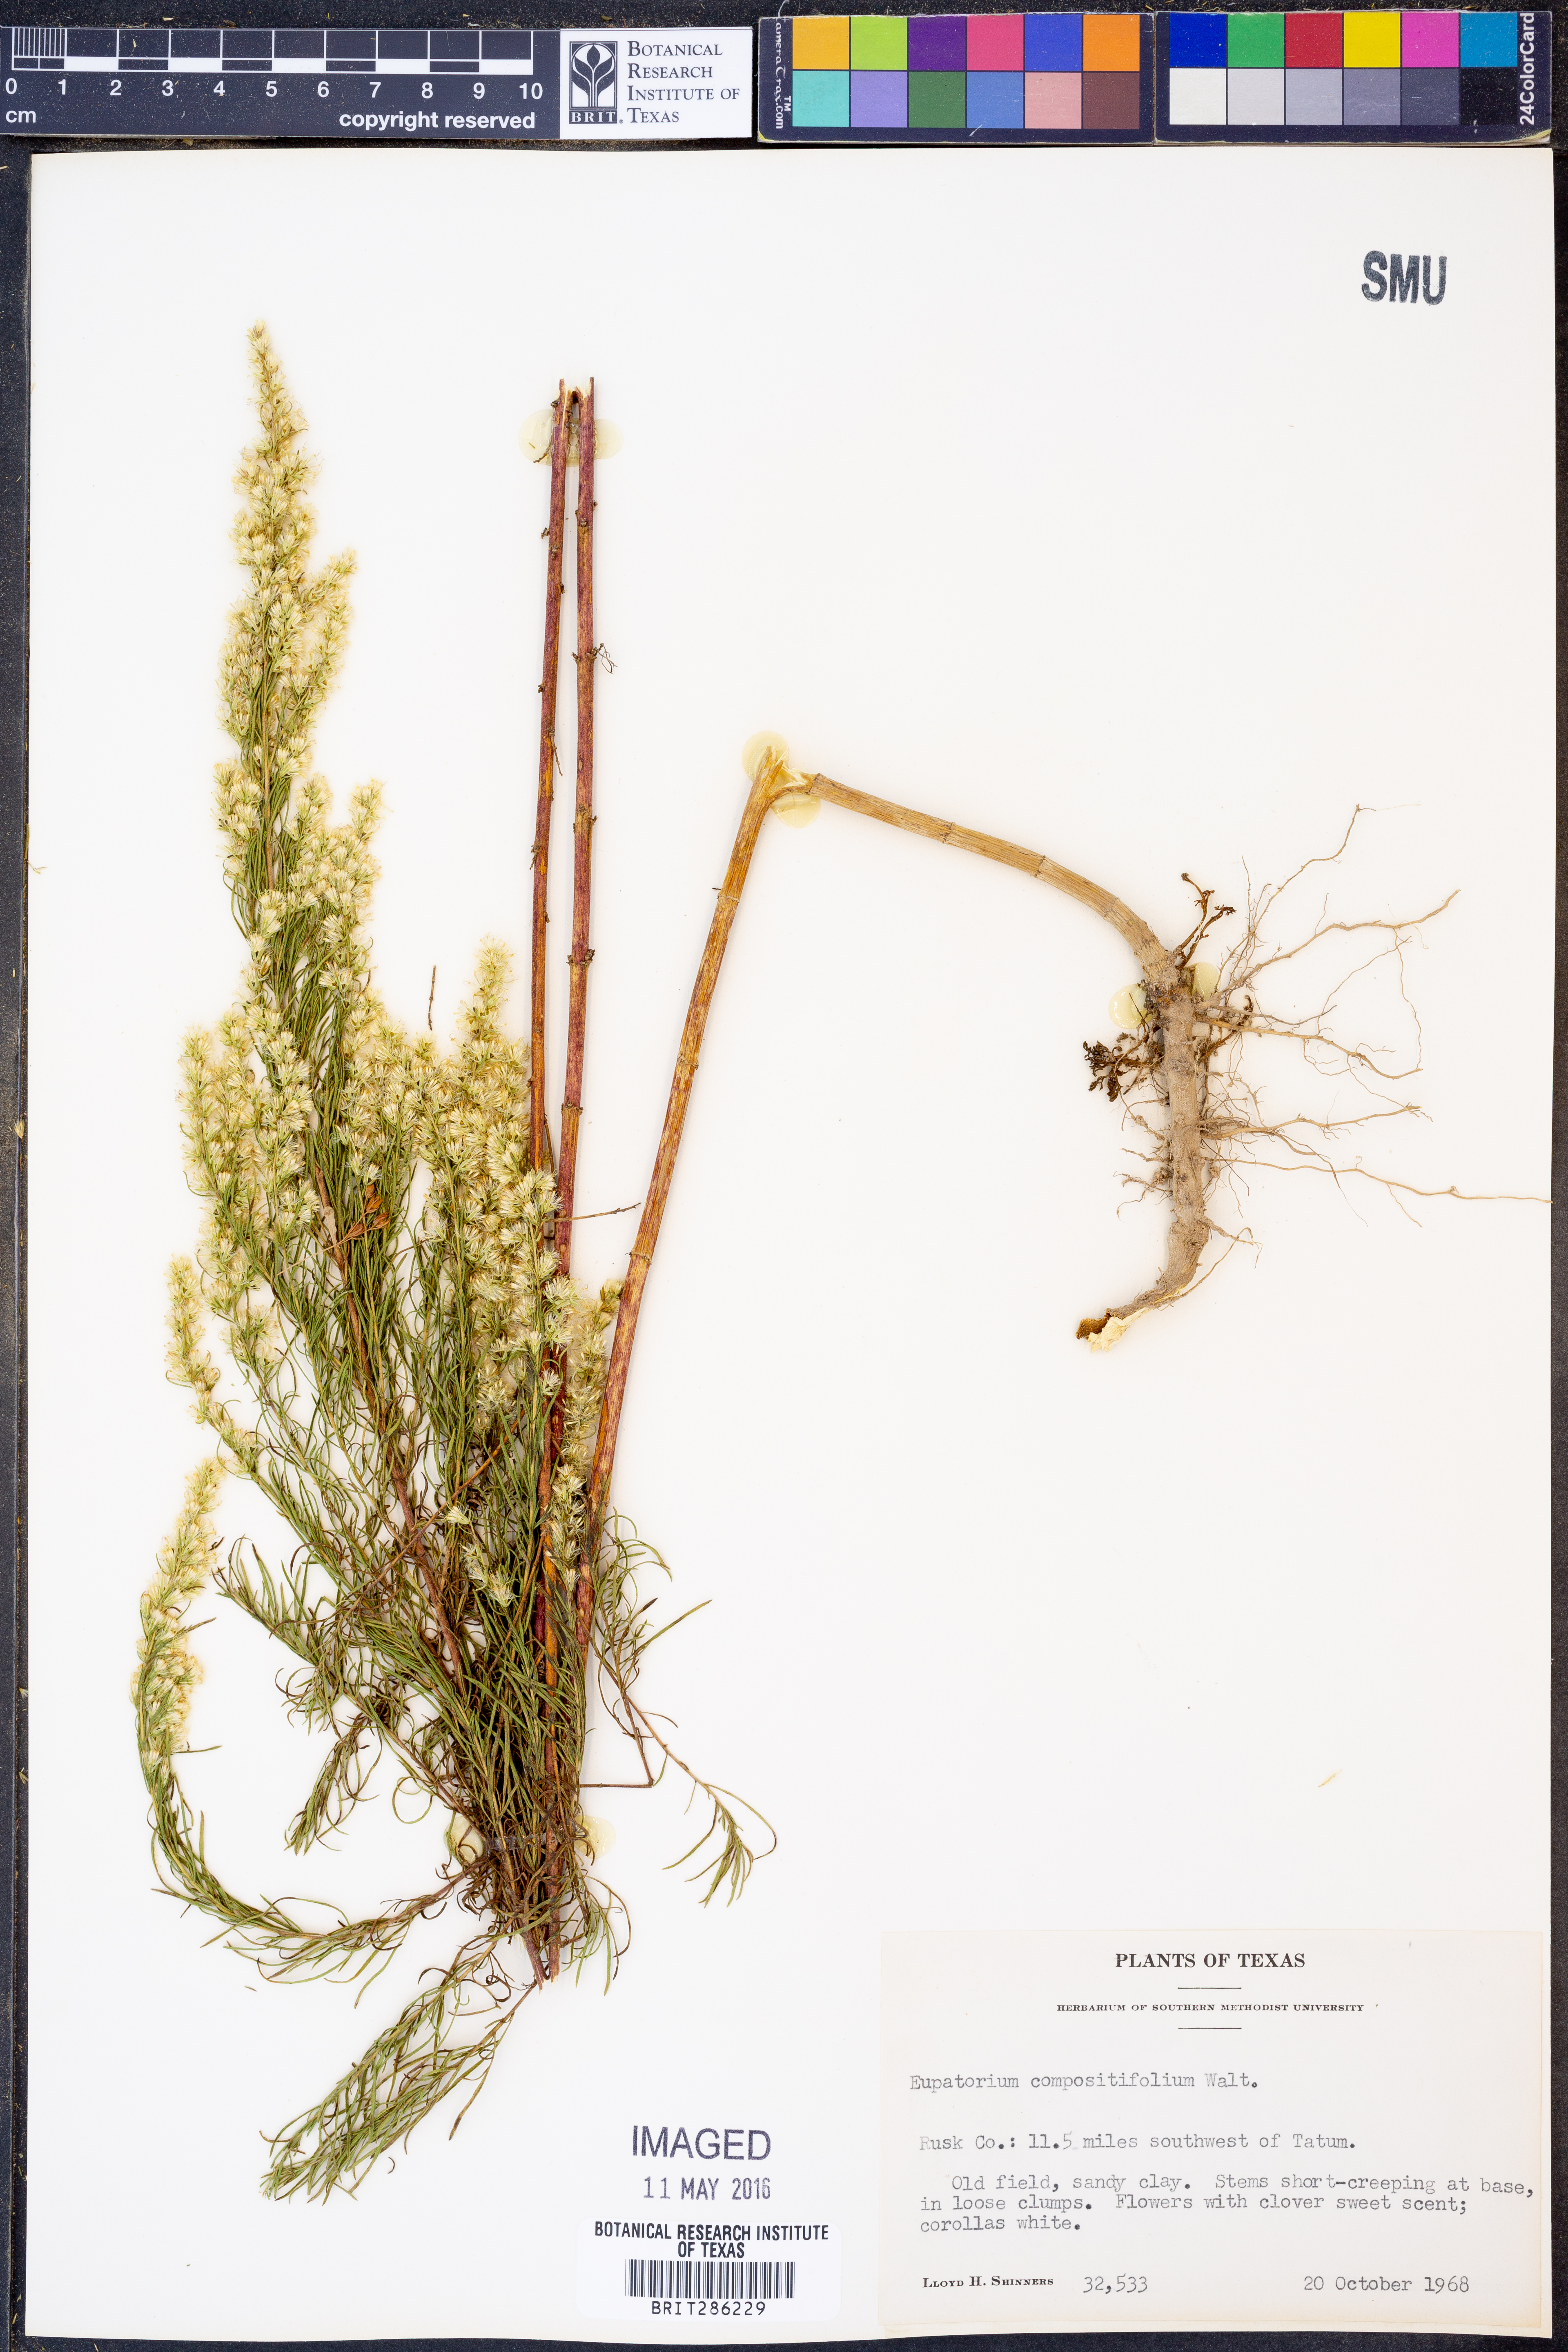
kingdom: Plantae
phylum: Tracheophyta
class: Magnoliopsida
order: Asterales
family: Asteraceae
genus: Eupatorium
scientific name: Eupatorium compositifolium
